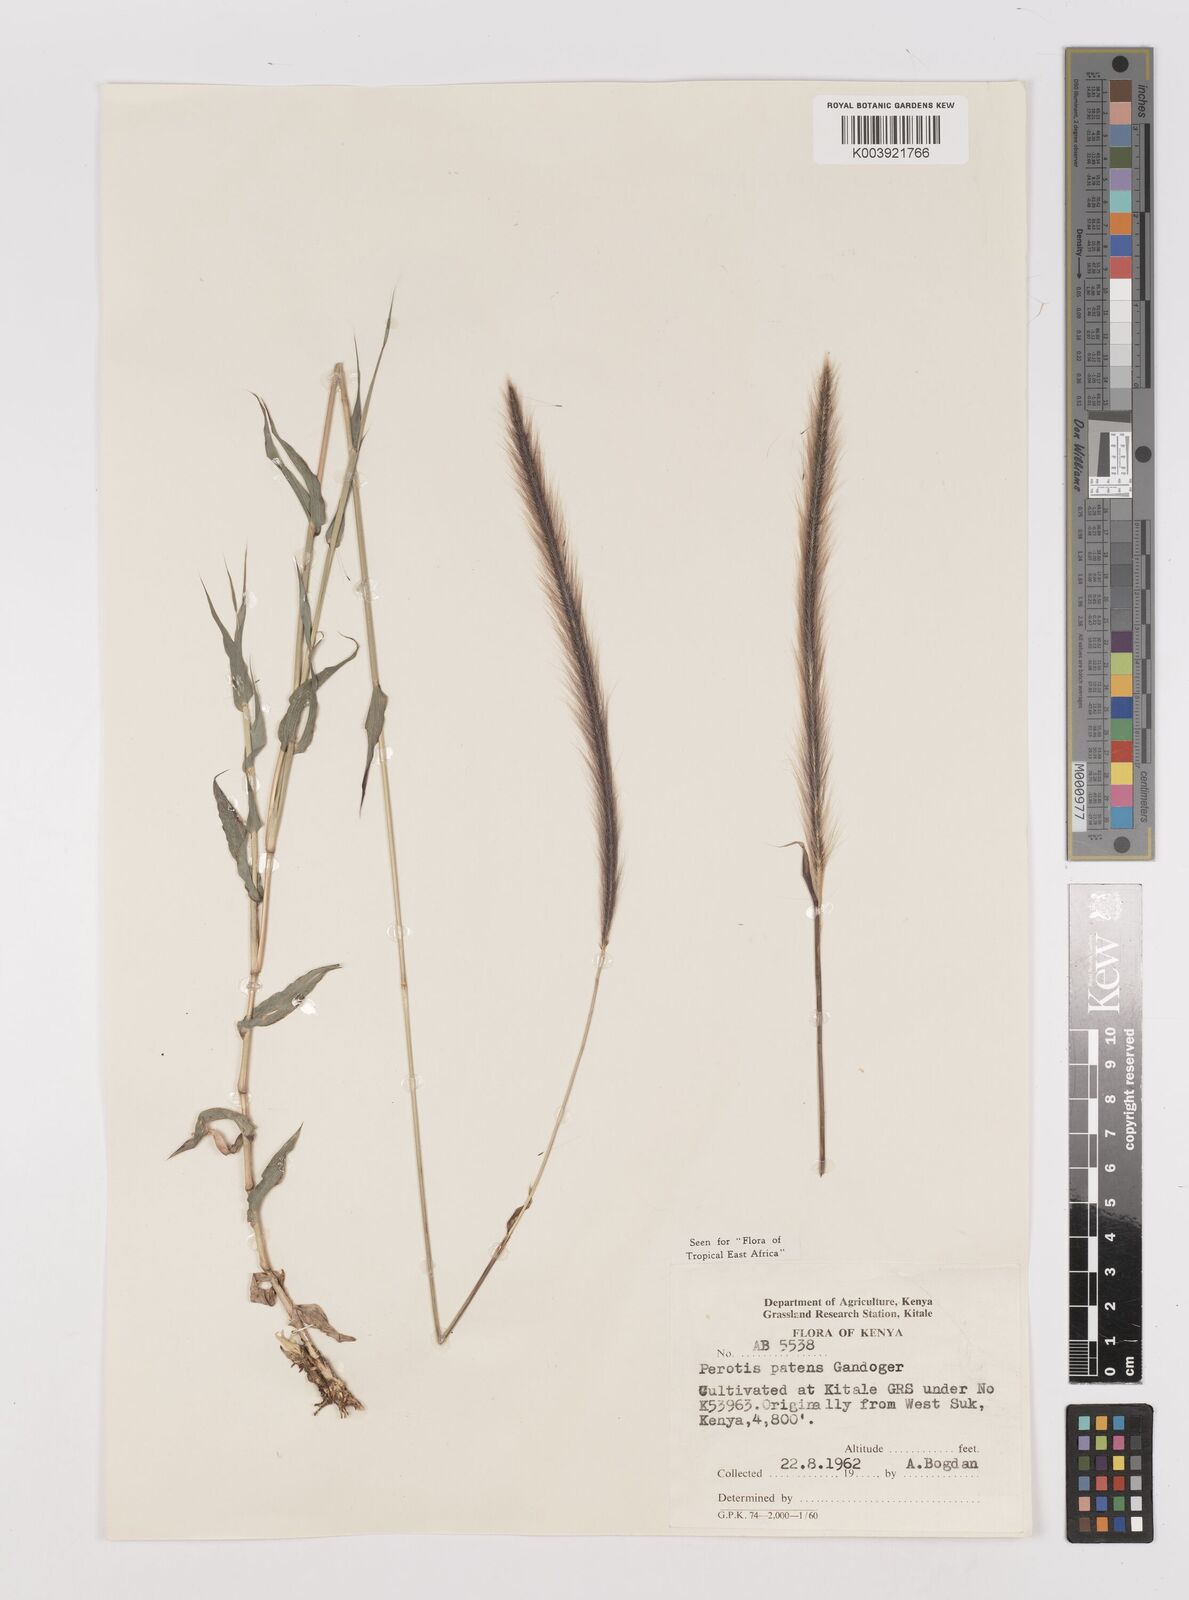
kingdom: Plantae
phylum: Tracheophyta
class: Liliopsida
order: Poales
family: Poaceae
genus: Perotis
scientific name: Perotis patens
